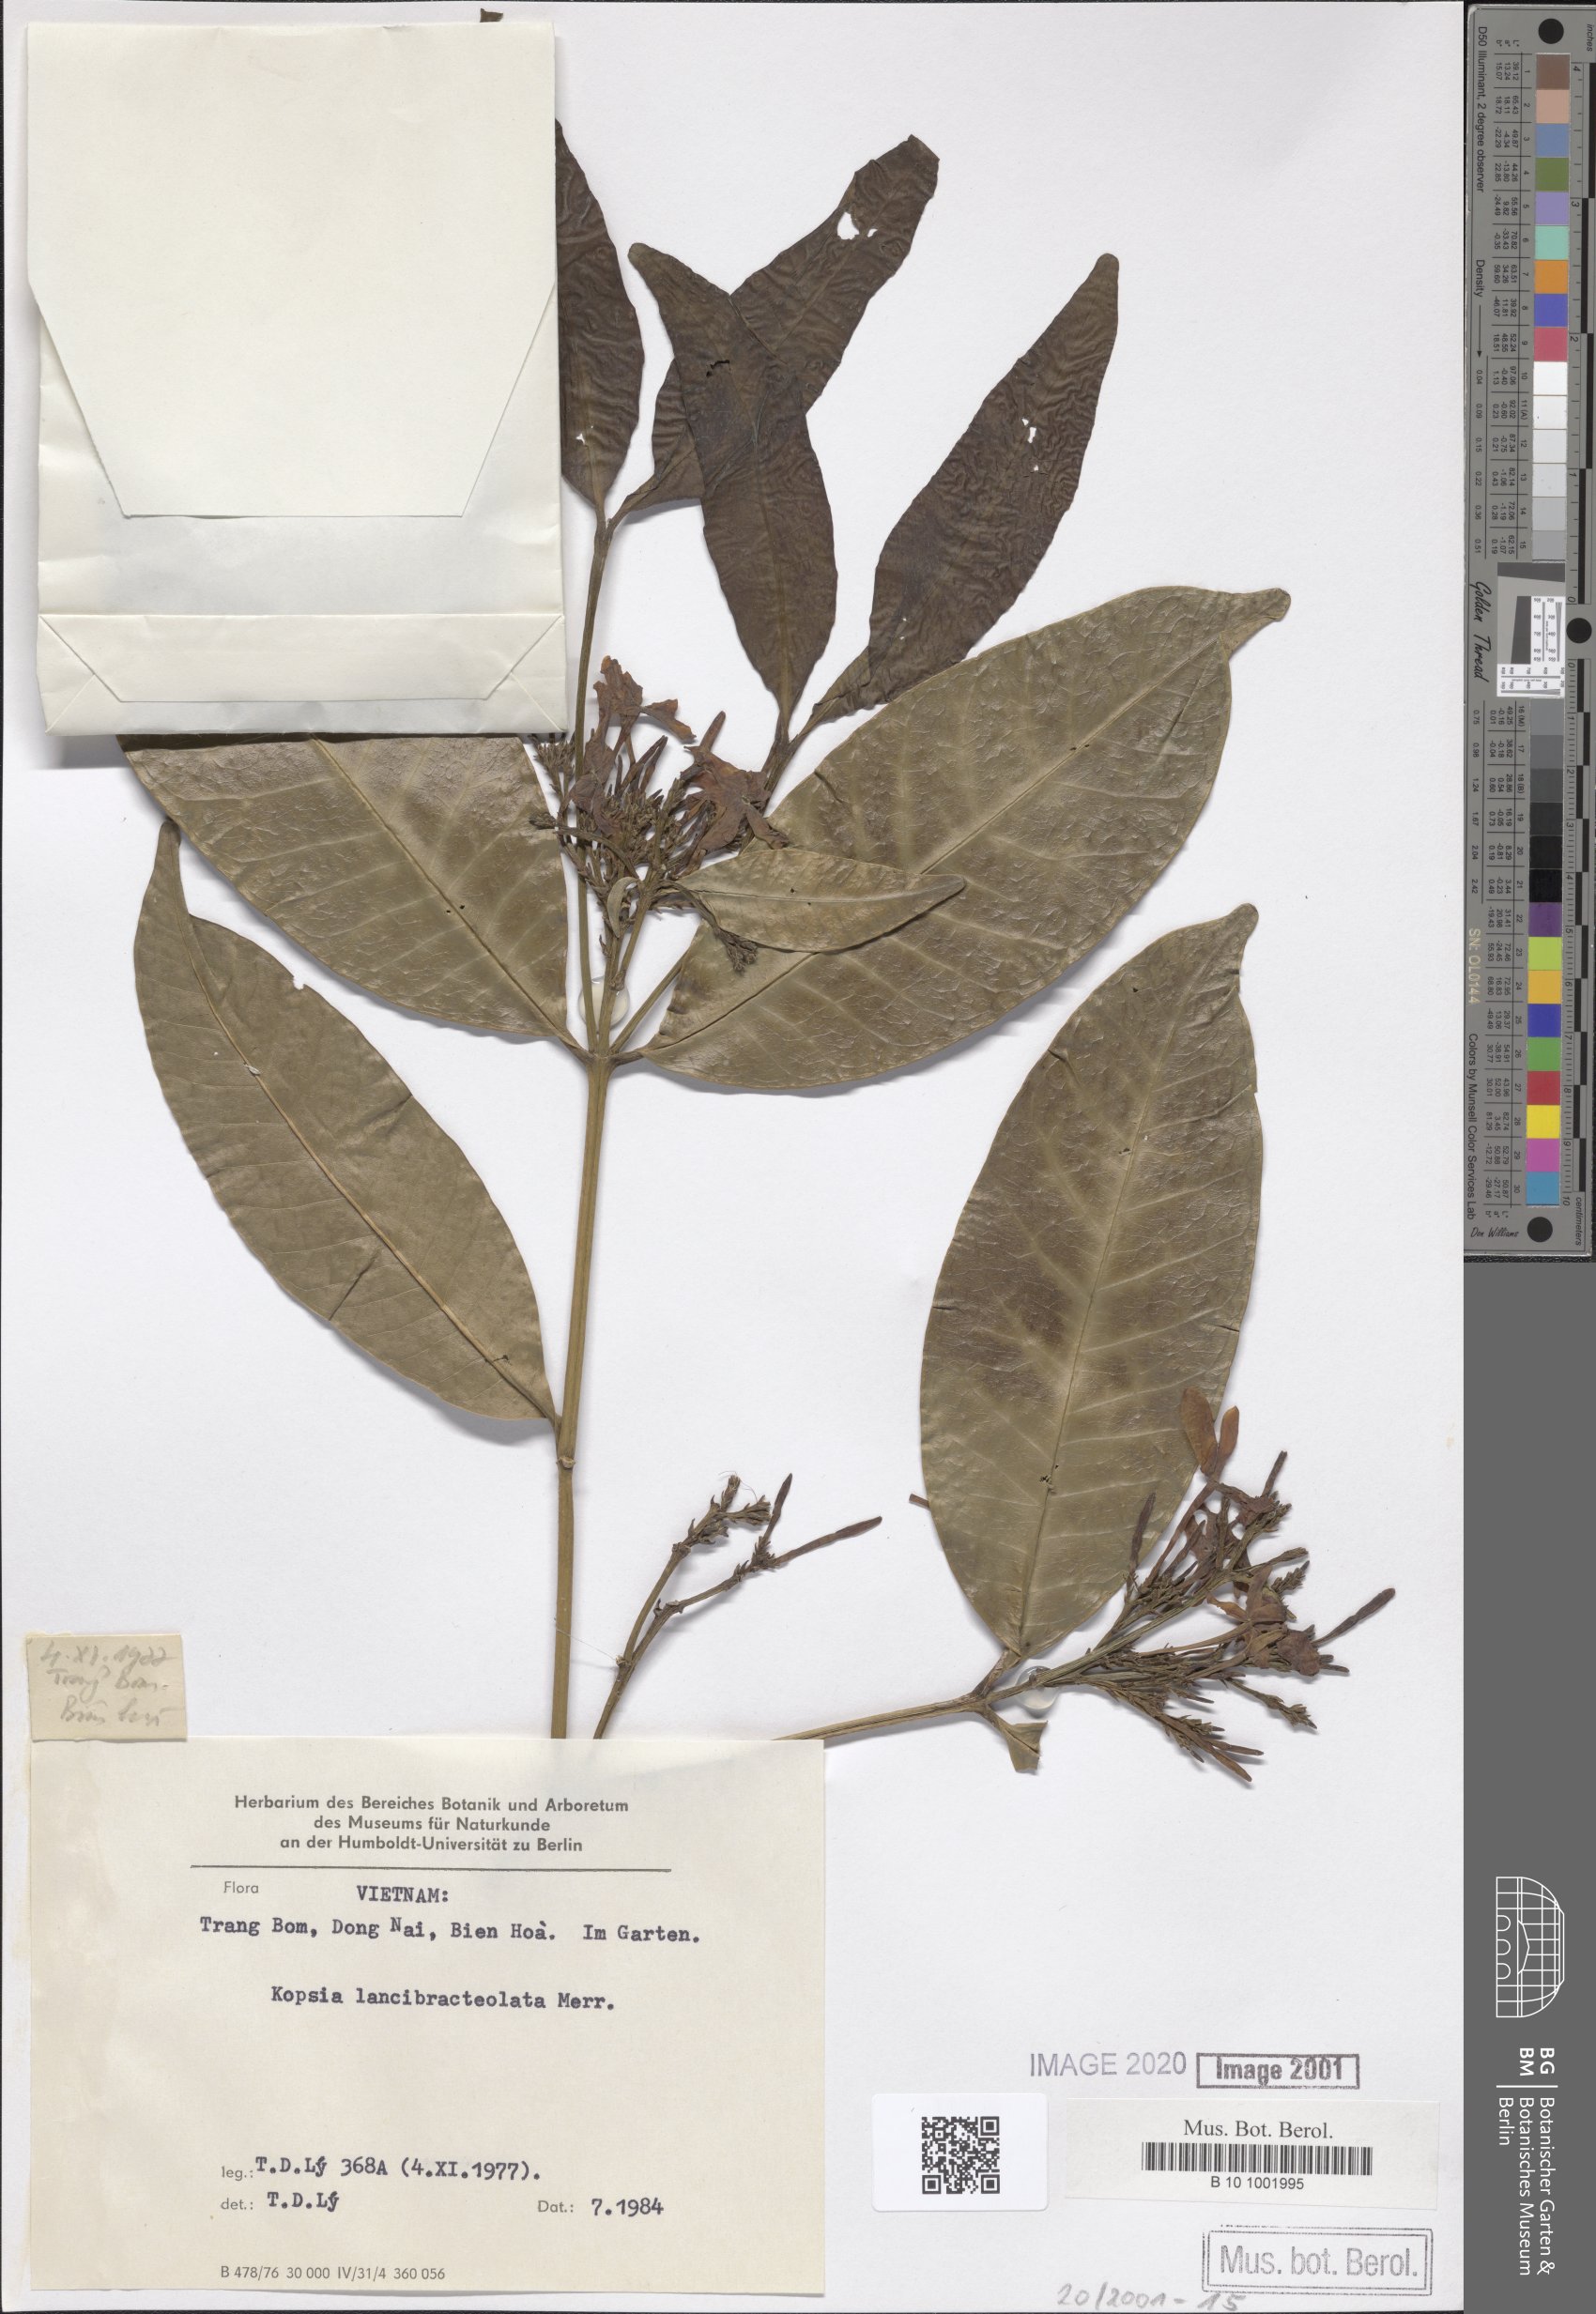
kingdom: Plantae
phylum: Tracheophyta
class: Magnoliopsida
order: Gentianales
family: Apocynaceae
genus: Kopsia
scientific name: Kopsia arborea
